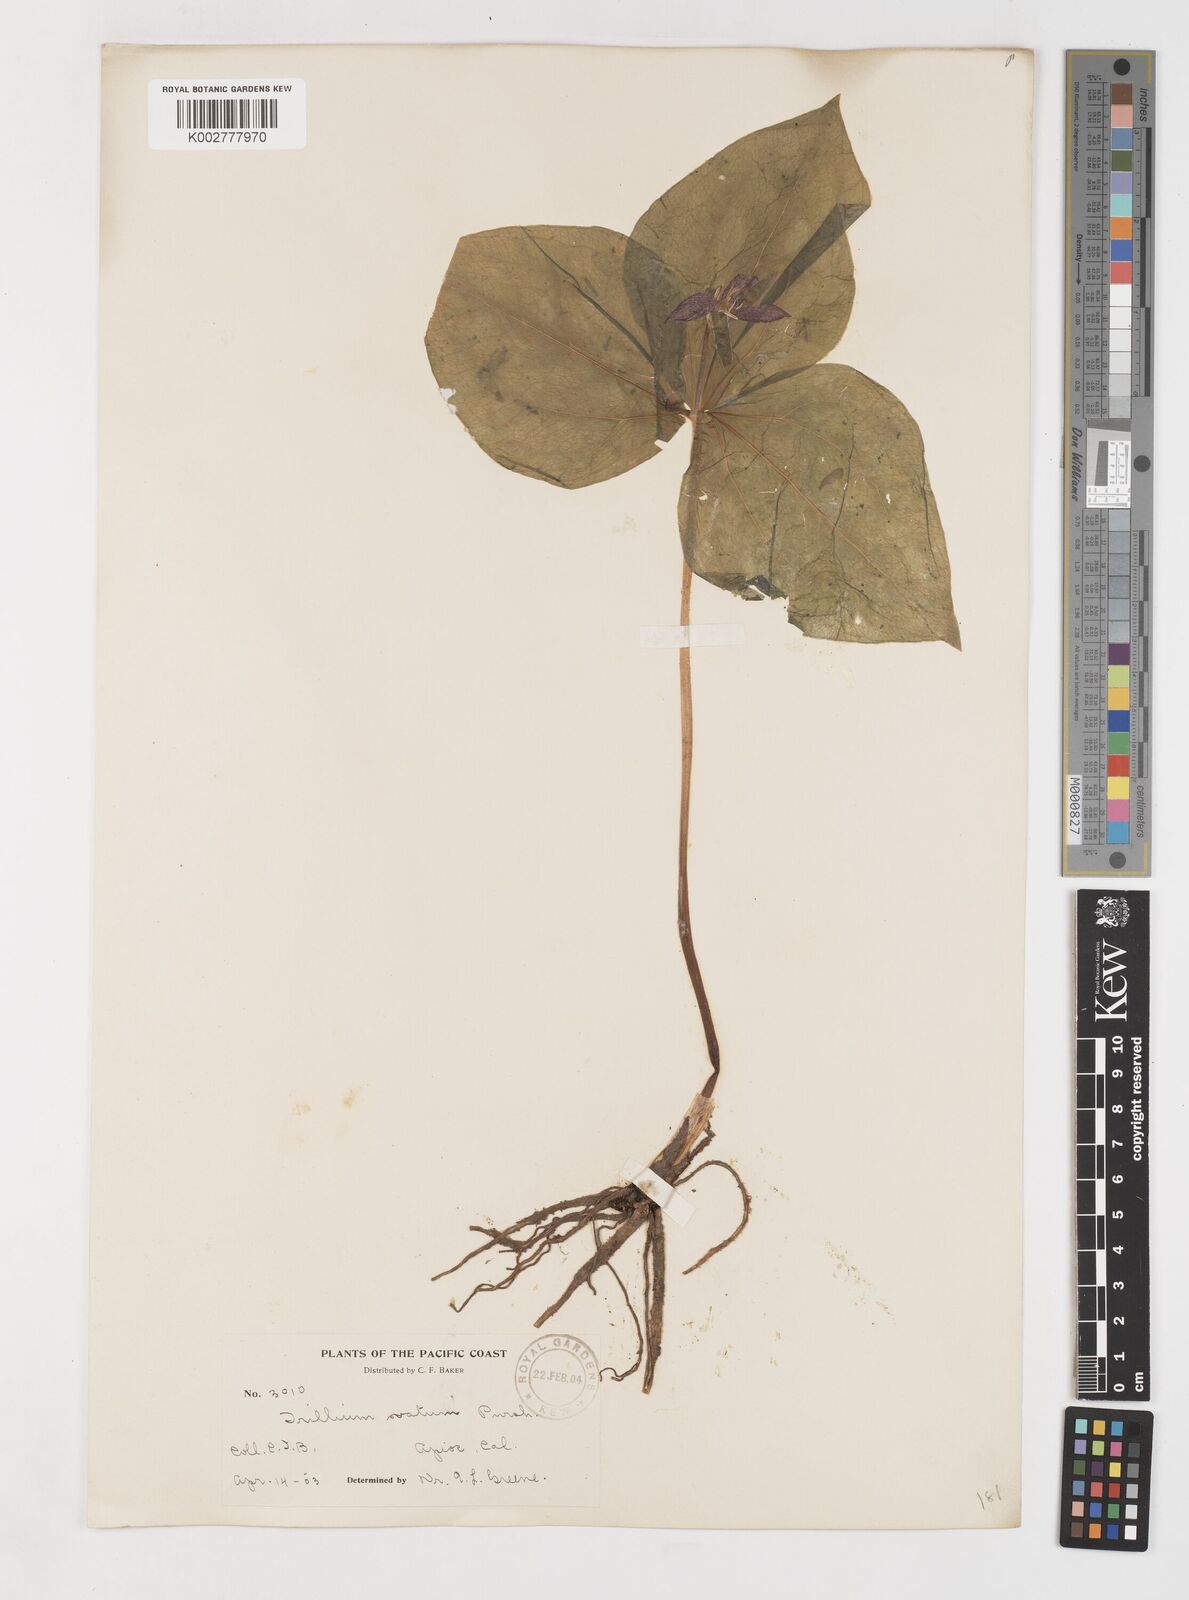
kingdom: Plantae
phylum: Tracheophyta
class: Liliopsida
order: Liliales
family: Melanthiaceae
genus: Trillium
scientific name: Trillium ovatum
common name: Pacific trillium
